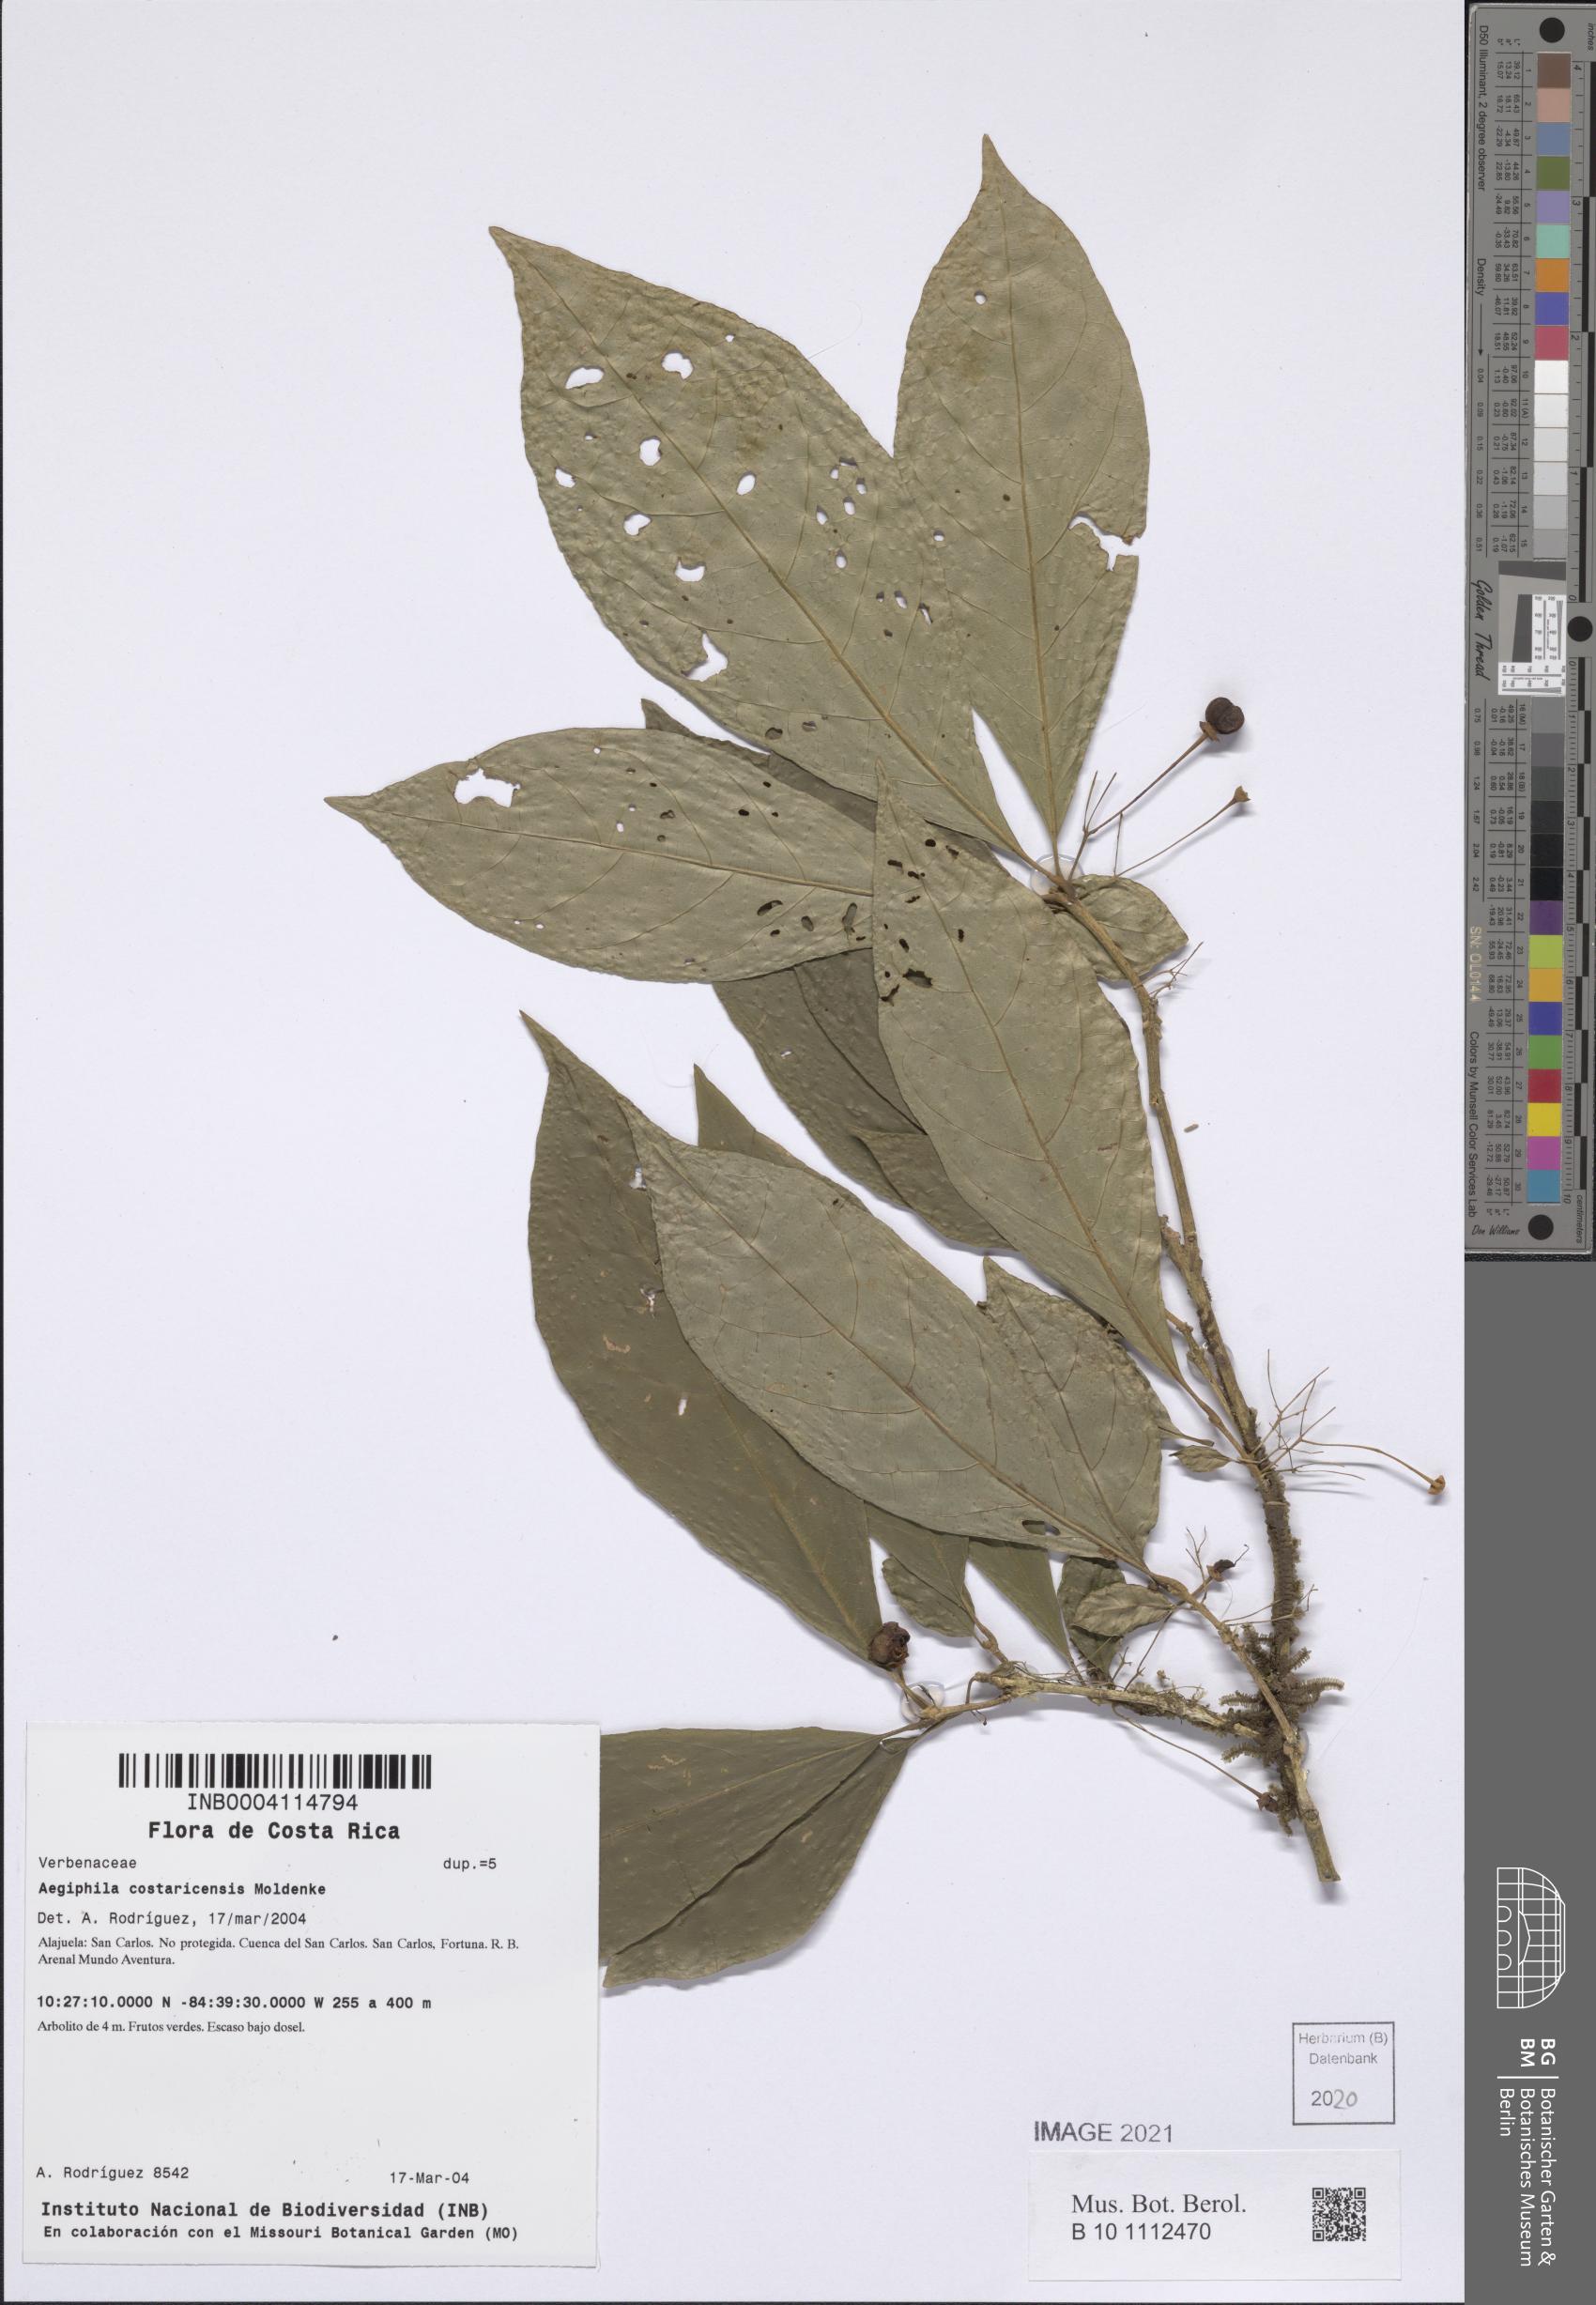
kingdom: Plantae
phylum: Tracheophyta
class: Magnoliopsida
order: Lamiales
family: Lamiaceae
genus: Aegiphila
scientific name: Aegiphila costaricensis
